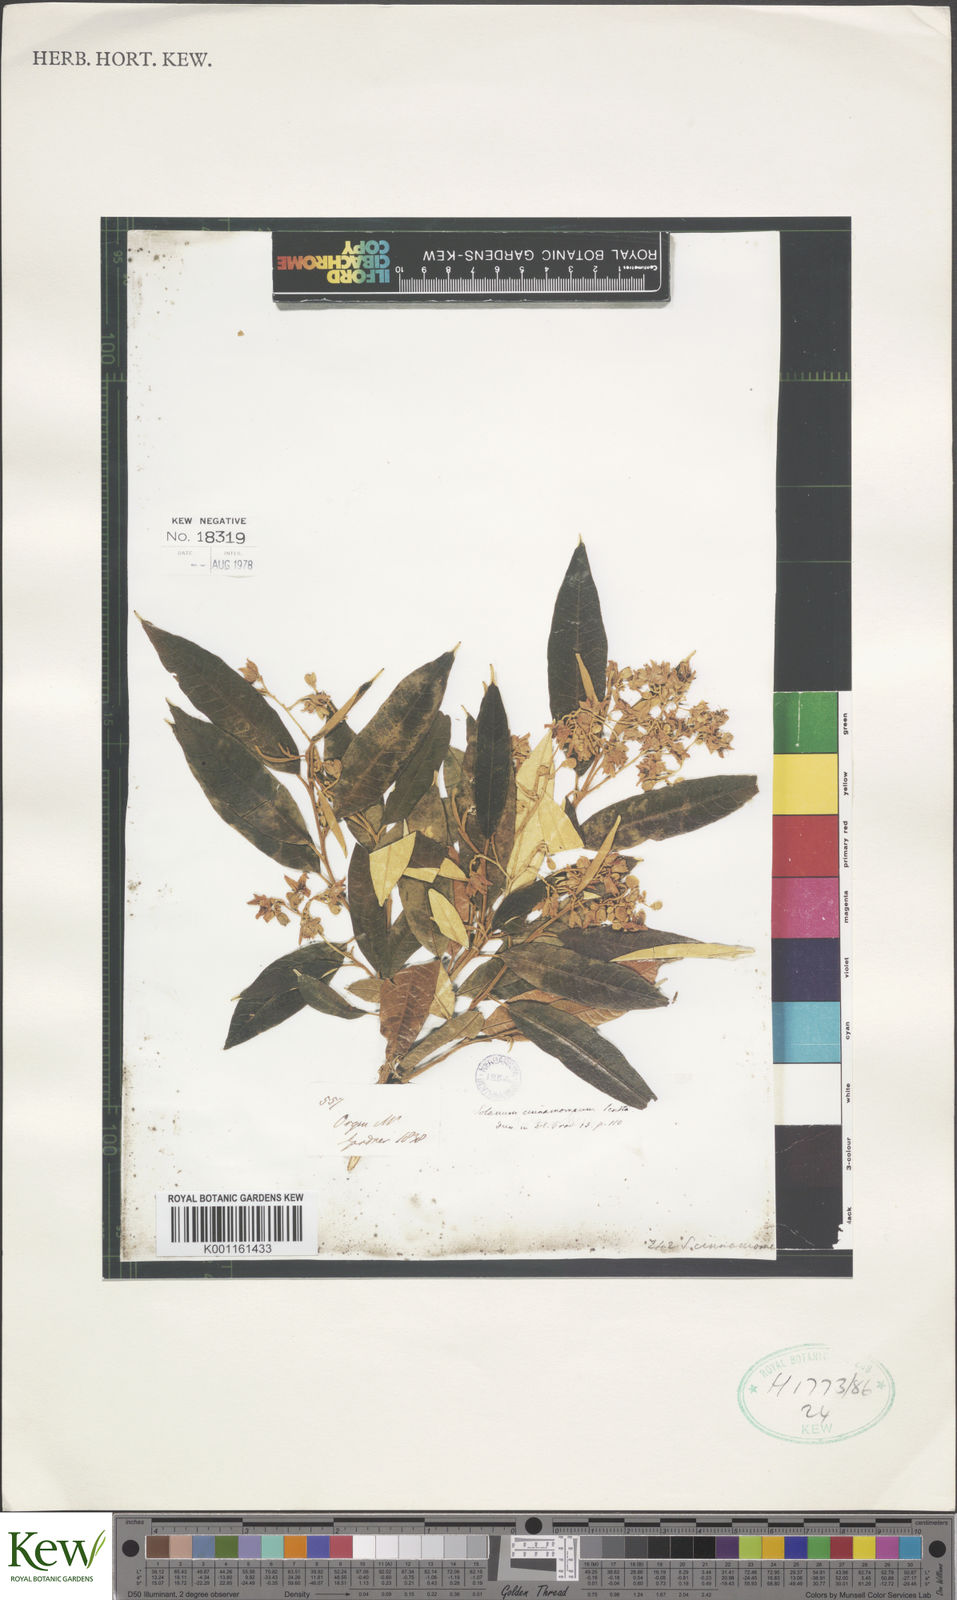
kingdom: Plantae
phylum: Tracheophyta
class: Magnoliopsida
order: Solanales
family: Solanaceae
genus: Solanum
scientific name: Solanum cinnamomeum
